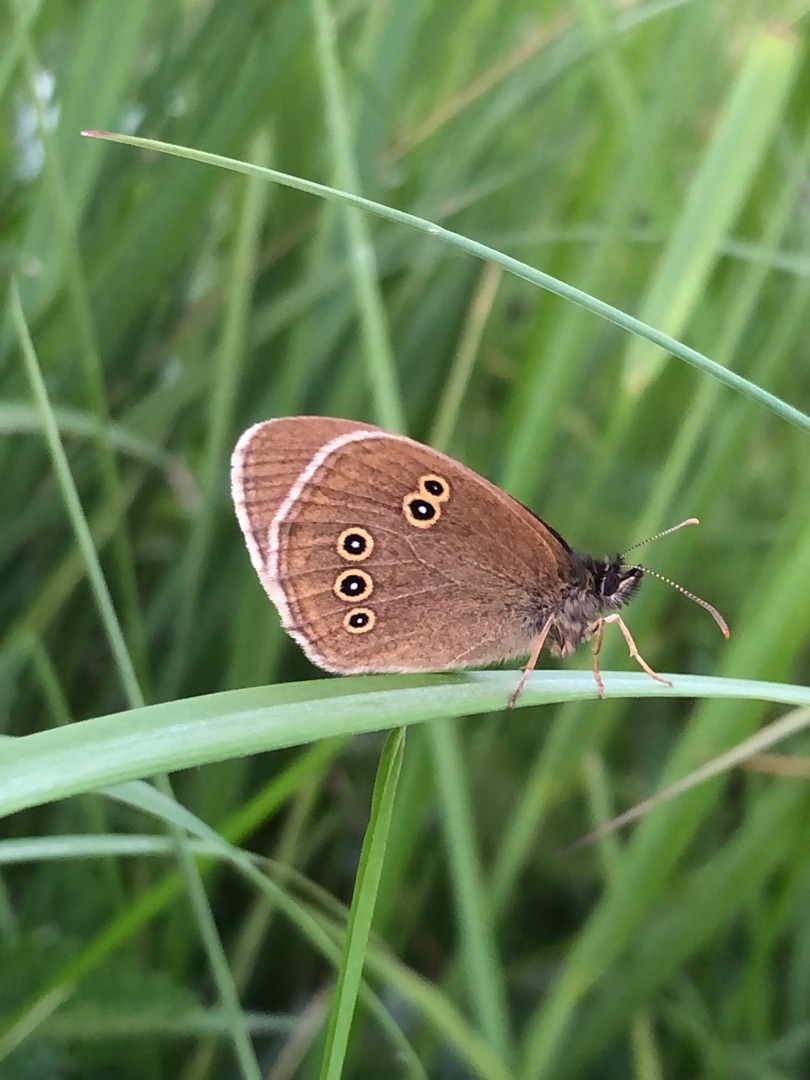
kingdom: Animalia
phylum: Arthropoda
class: Insecta
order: Lepidoptera
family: Nymphalidae
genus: Aphantopus
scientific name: Aphantopus hyperantus
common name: Engrandøje
